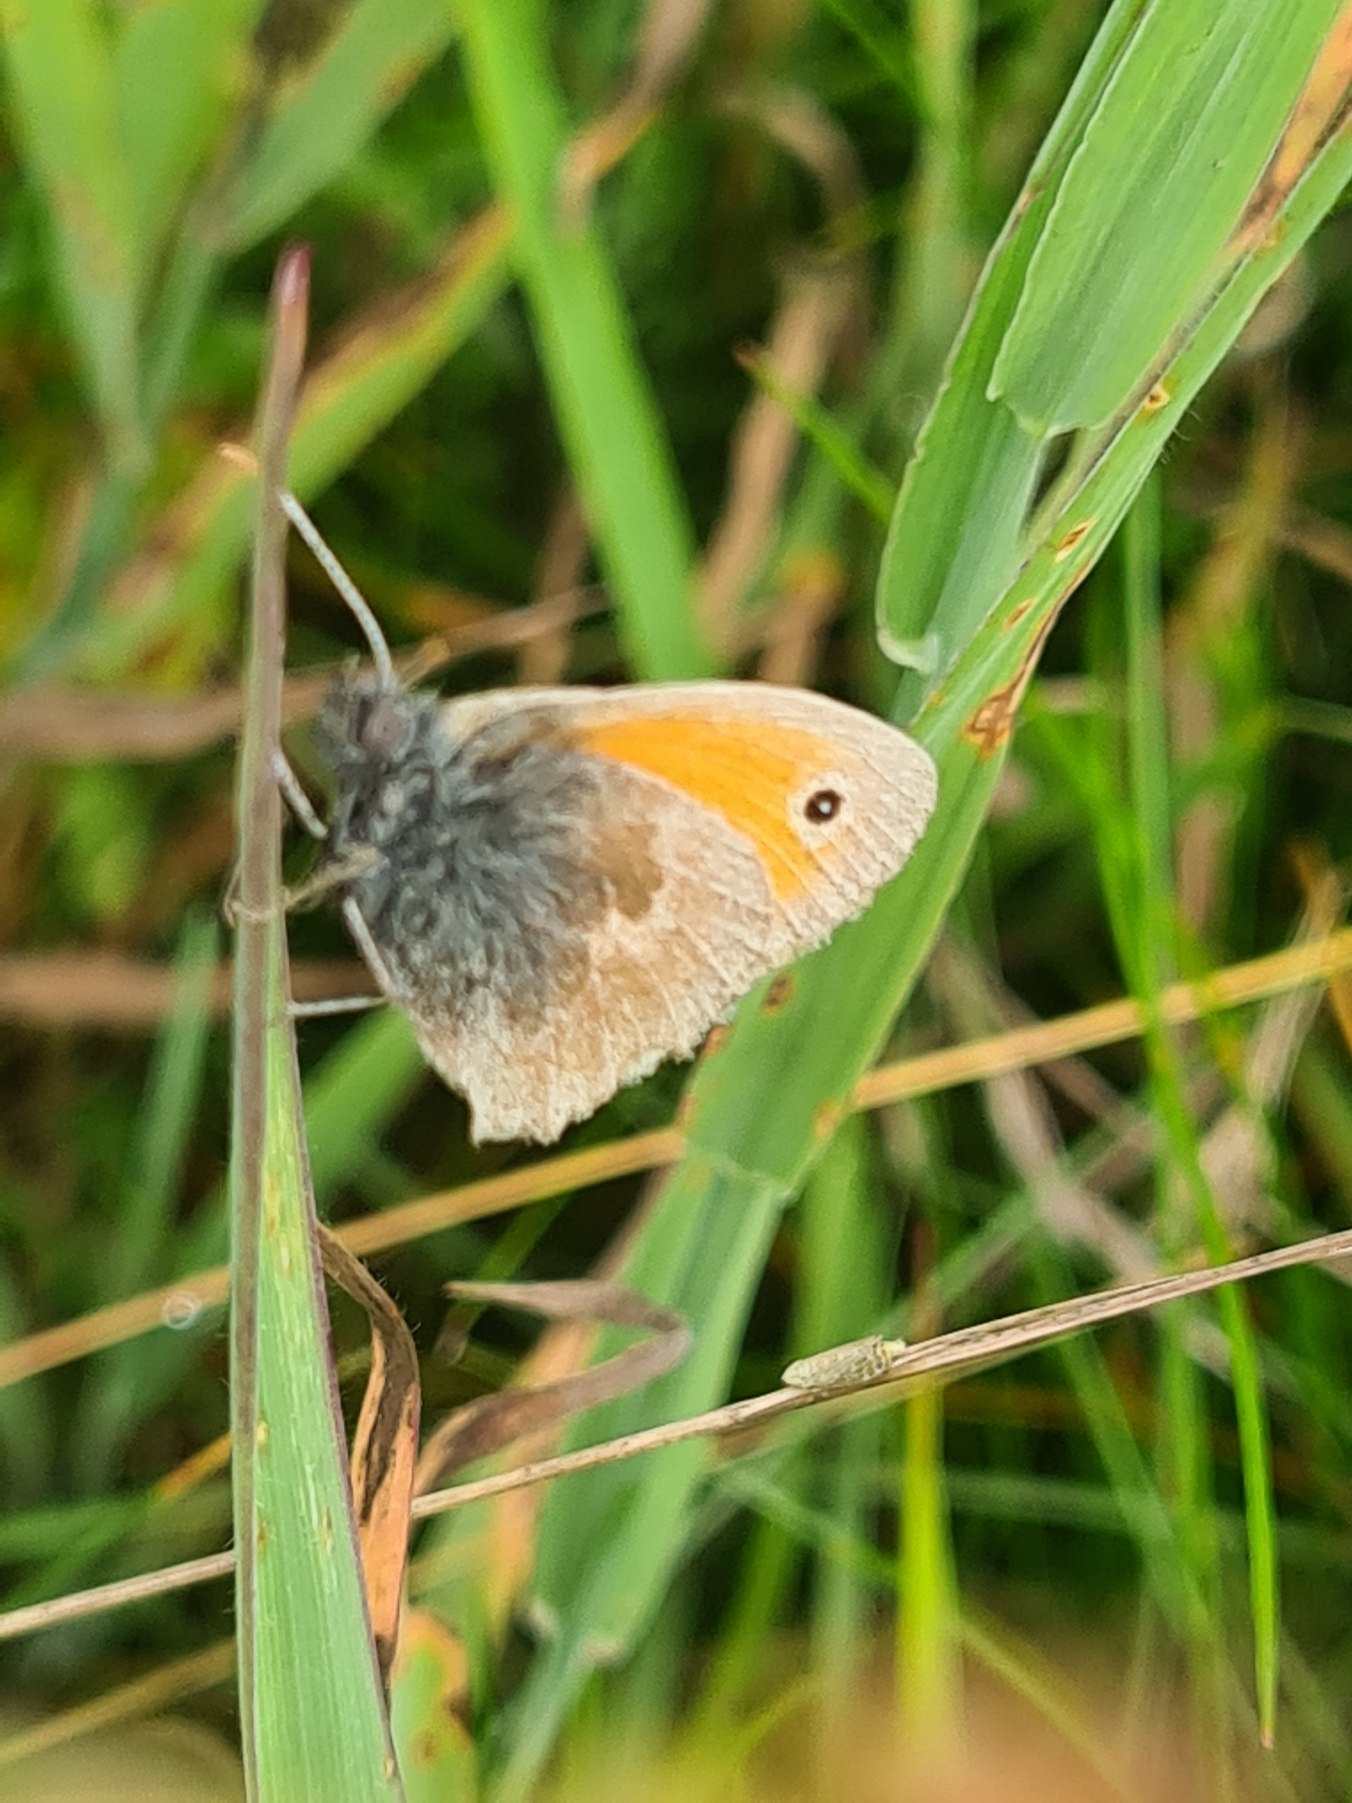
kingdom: Animalia
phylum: Arthropoda
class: Insecta
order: Lepidoptera
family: Nymphalidae
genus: Coenonympha
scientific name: Coenonympha pamphilus
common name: Okkergul randøje
